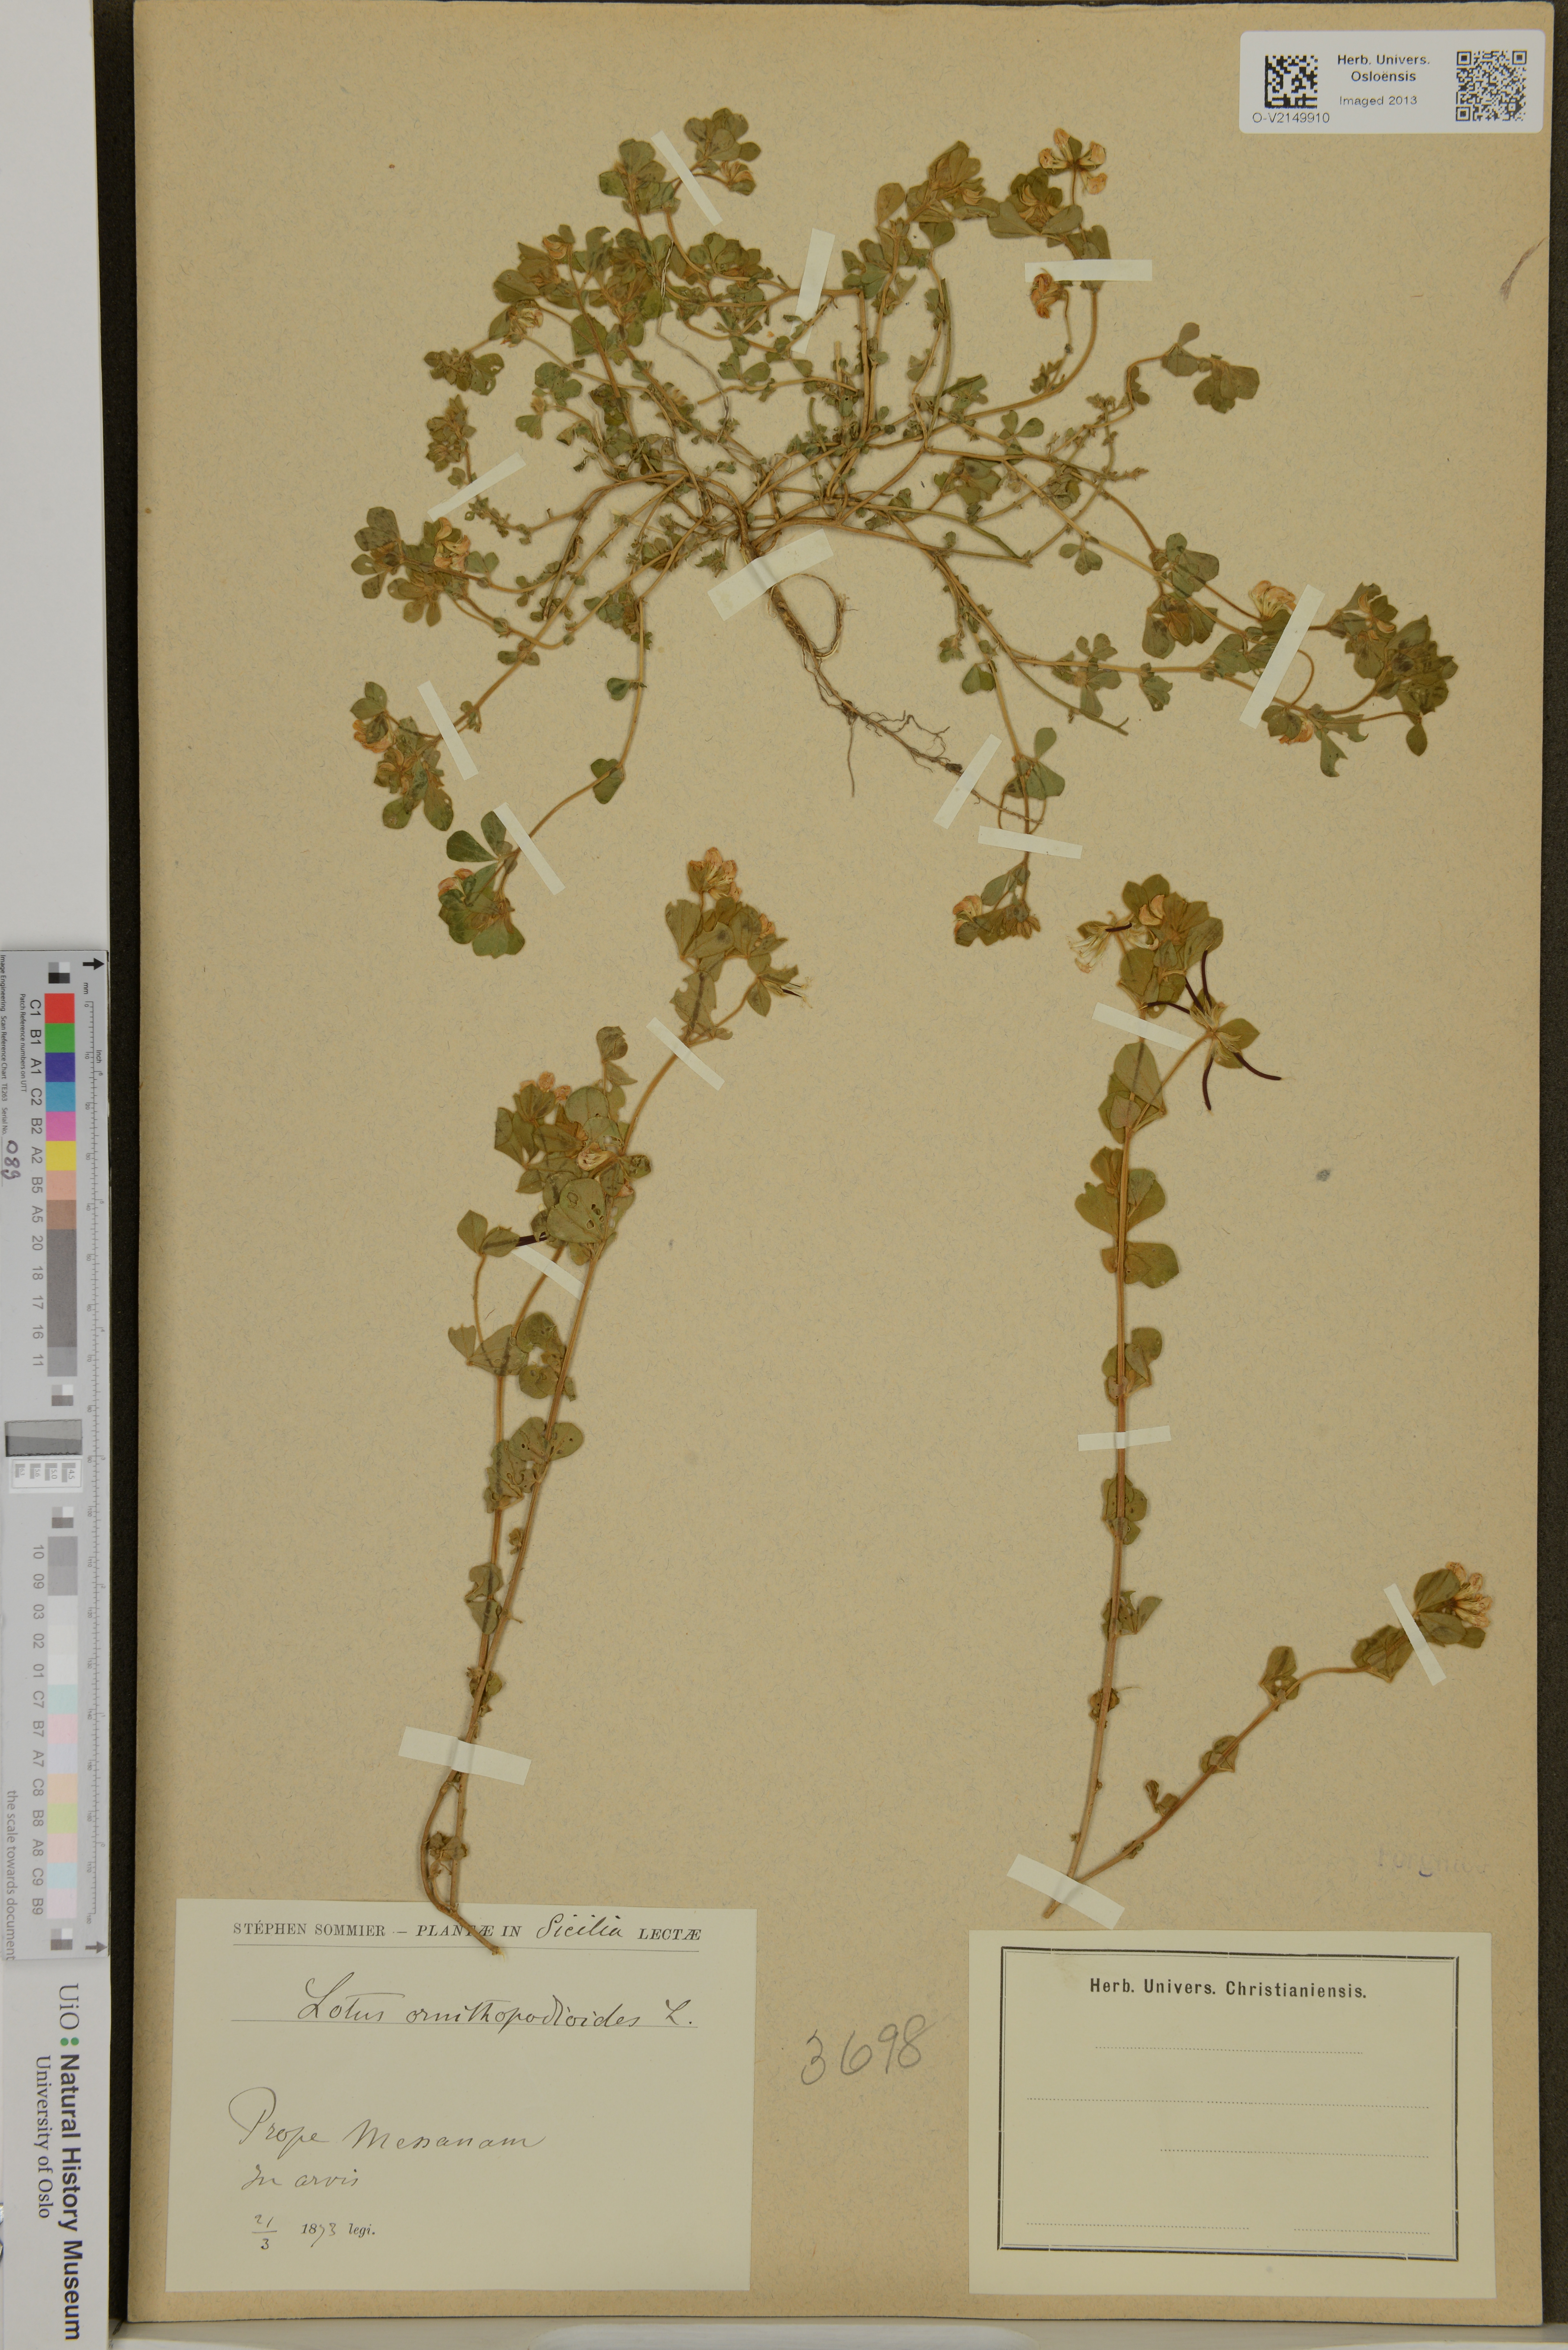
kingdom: Plantae
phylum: Tracheophyta
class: Magnoliopsida
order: Fabales
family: Fabaceae
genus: Lotus
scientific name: Lotus ornithopodioides
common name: Southern bird's-foot trefoil
